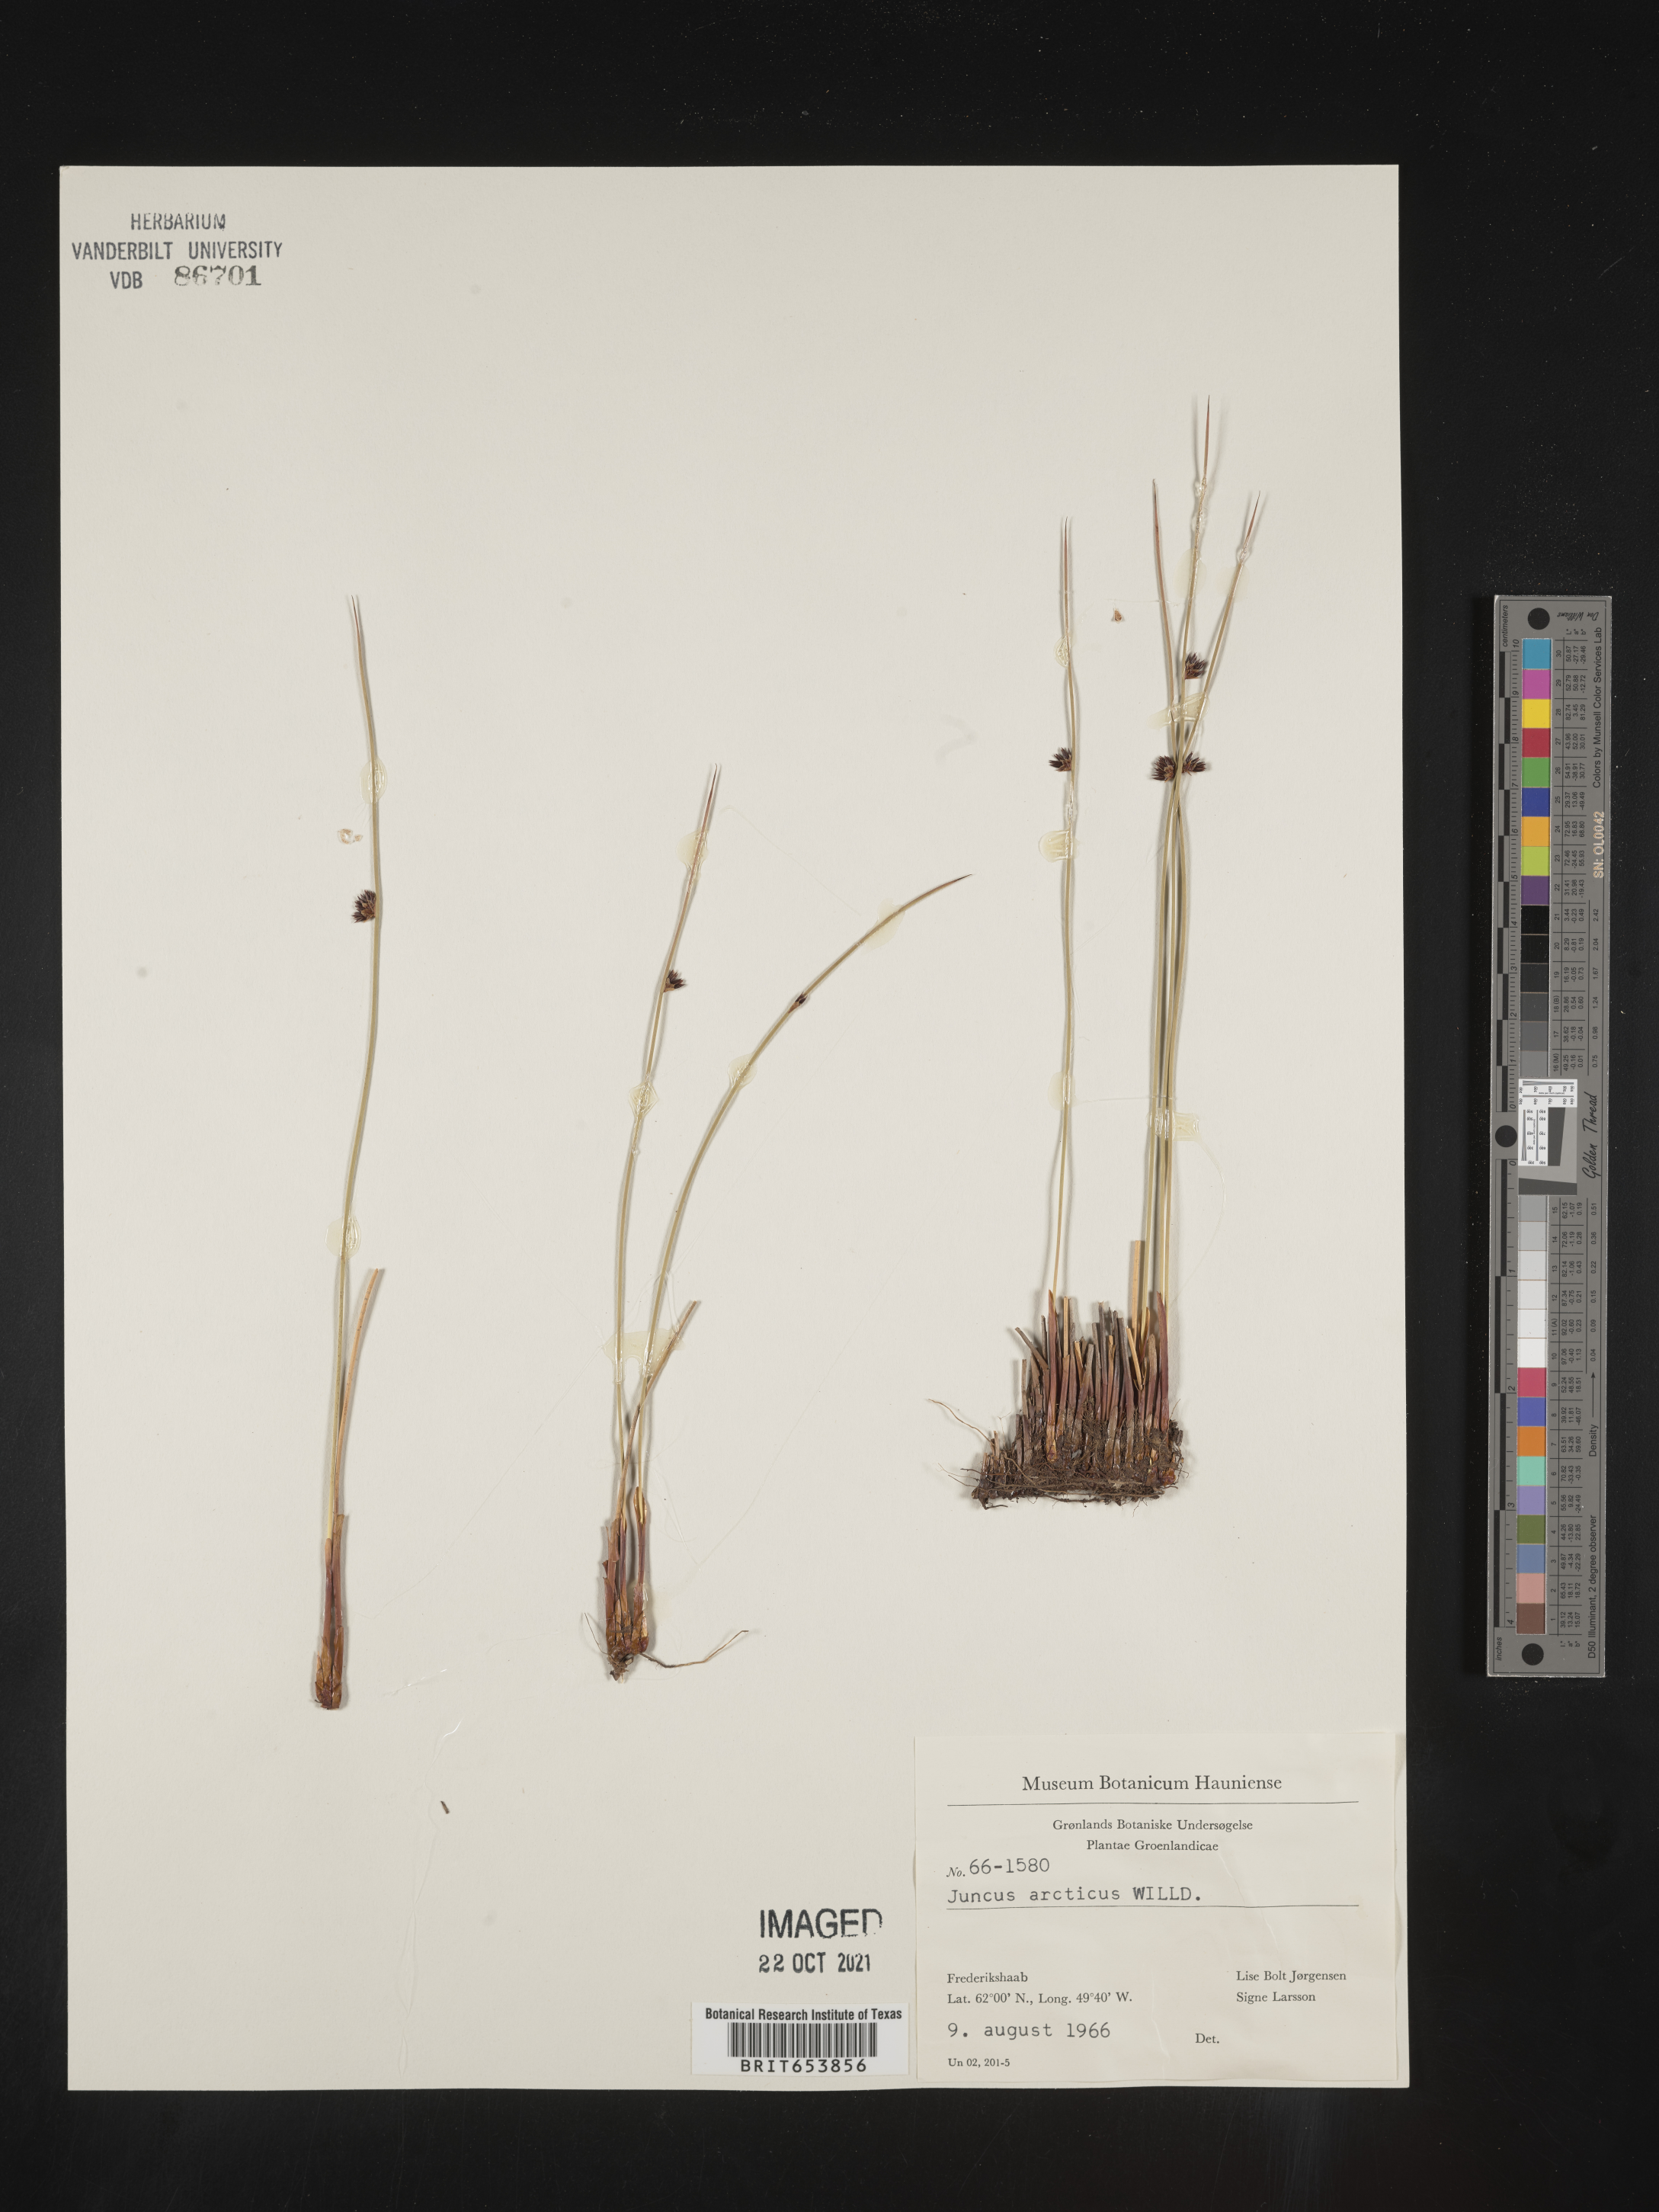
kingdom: Plantae
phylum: Tracheophyta
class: Liliopsida
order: Poales
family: Juncaceae
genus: Juncus
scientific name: Juncus arcticus
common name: Arctic rush
